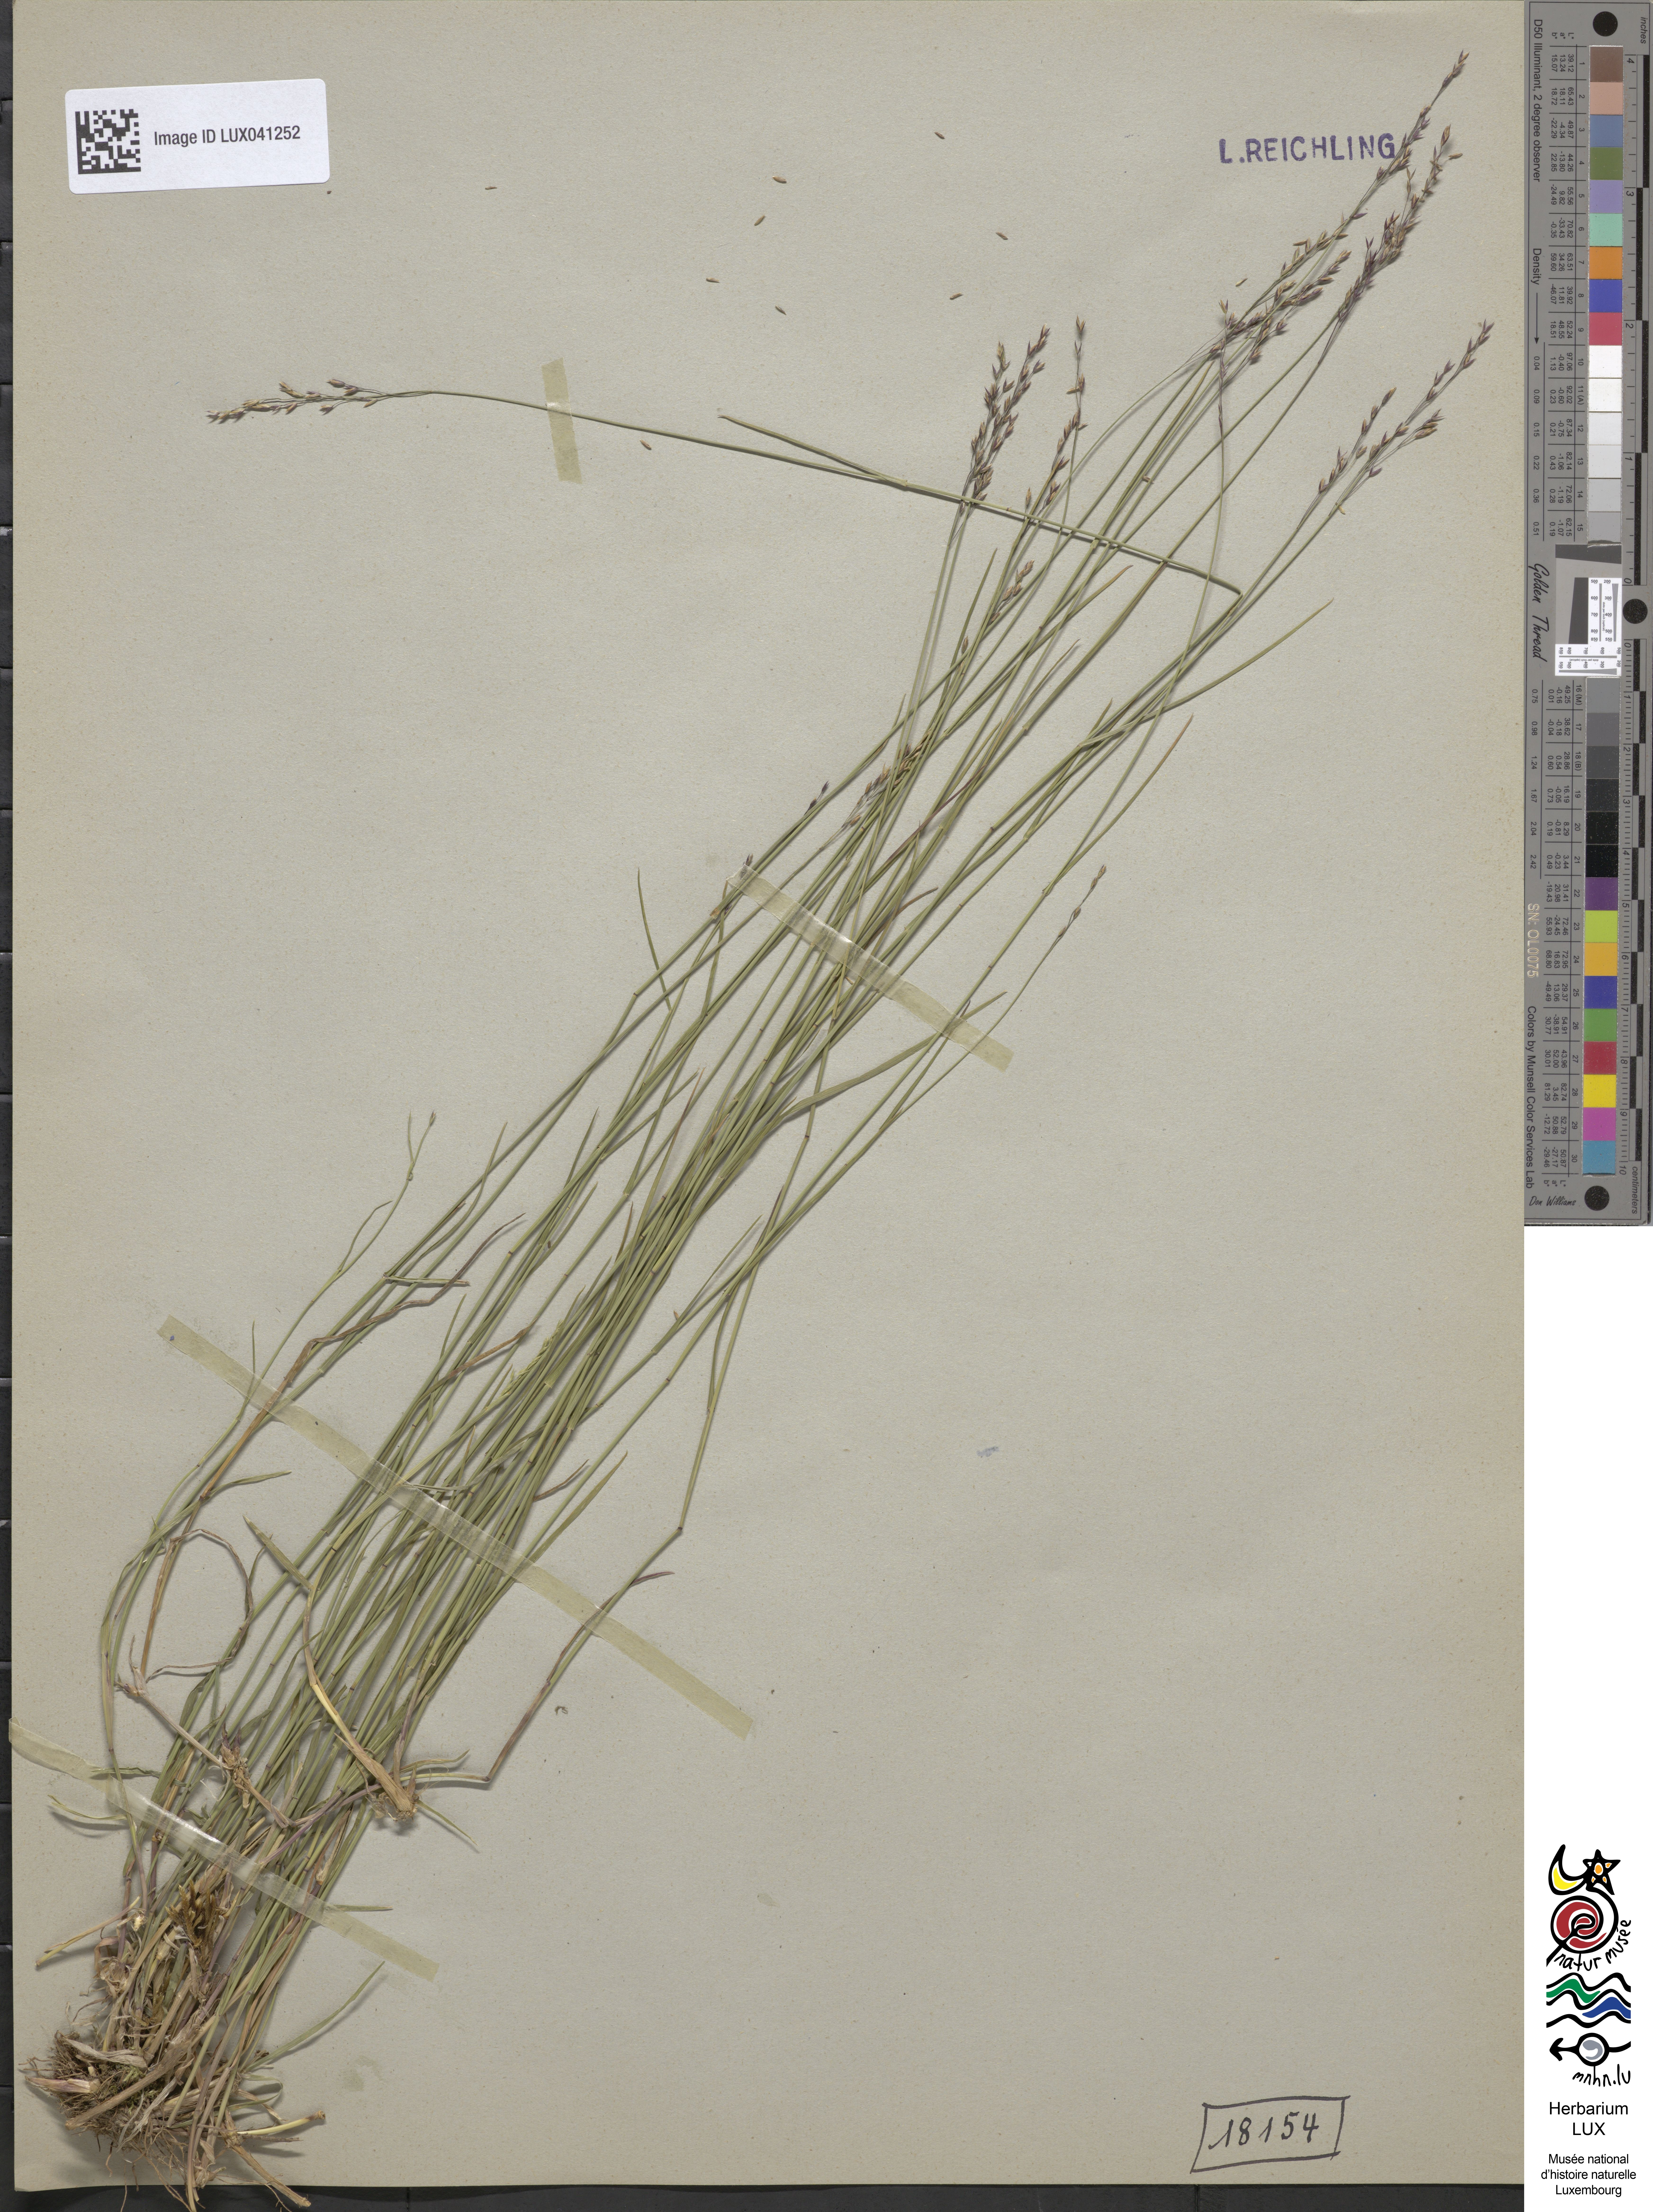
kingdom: Plantae
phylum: Tracheophyta
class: Liliopsida
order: Poales
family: Poaceae
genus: Poa
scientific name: Poa nemoralis
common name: Wood bluegrass
